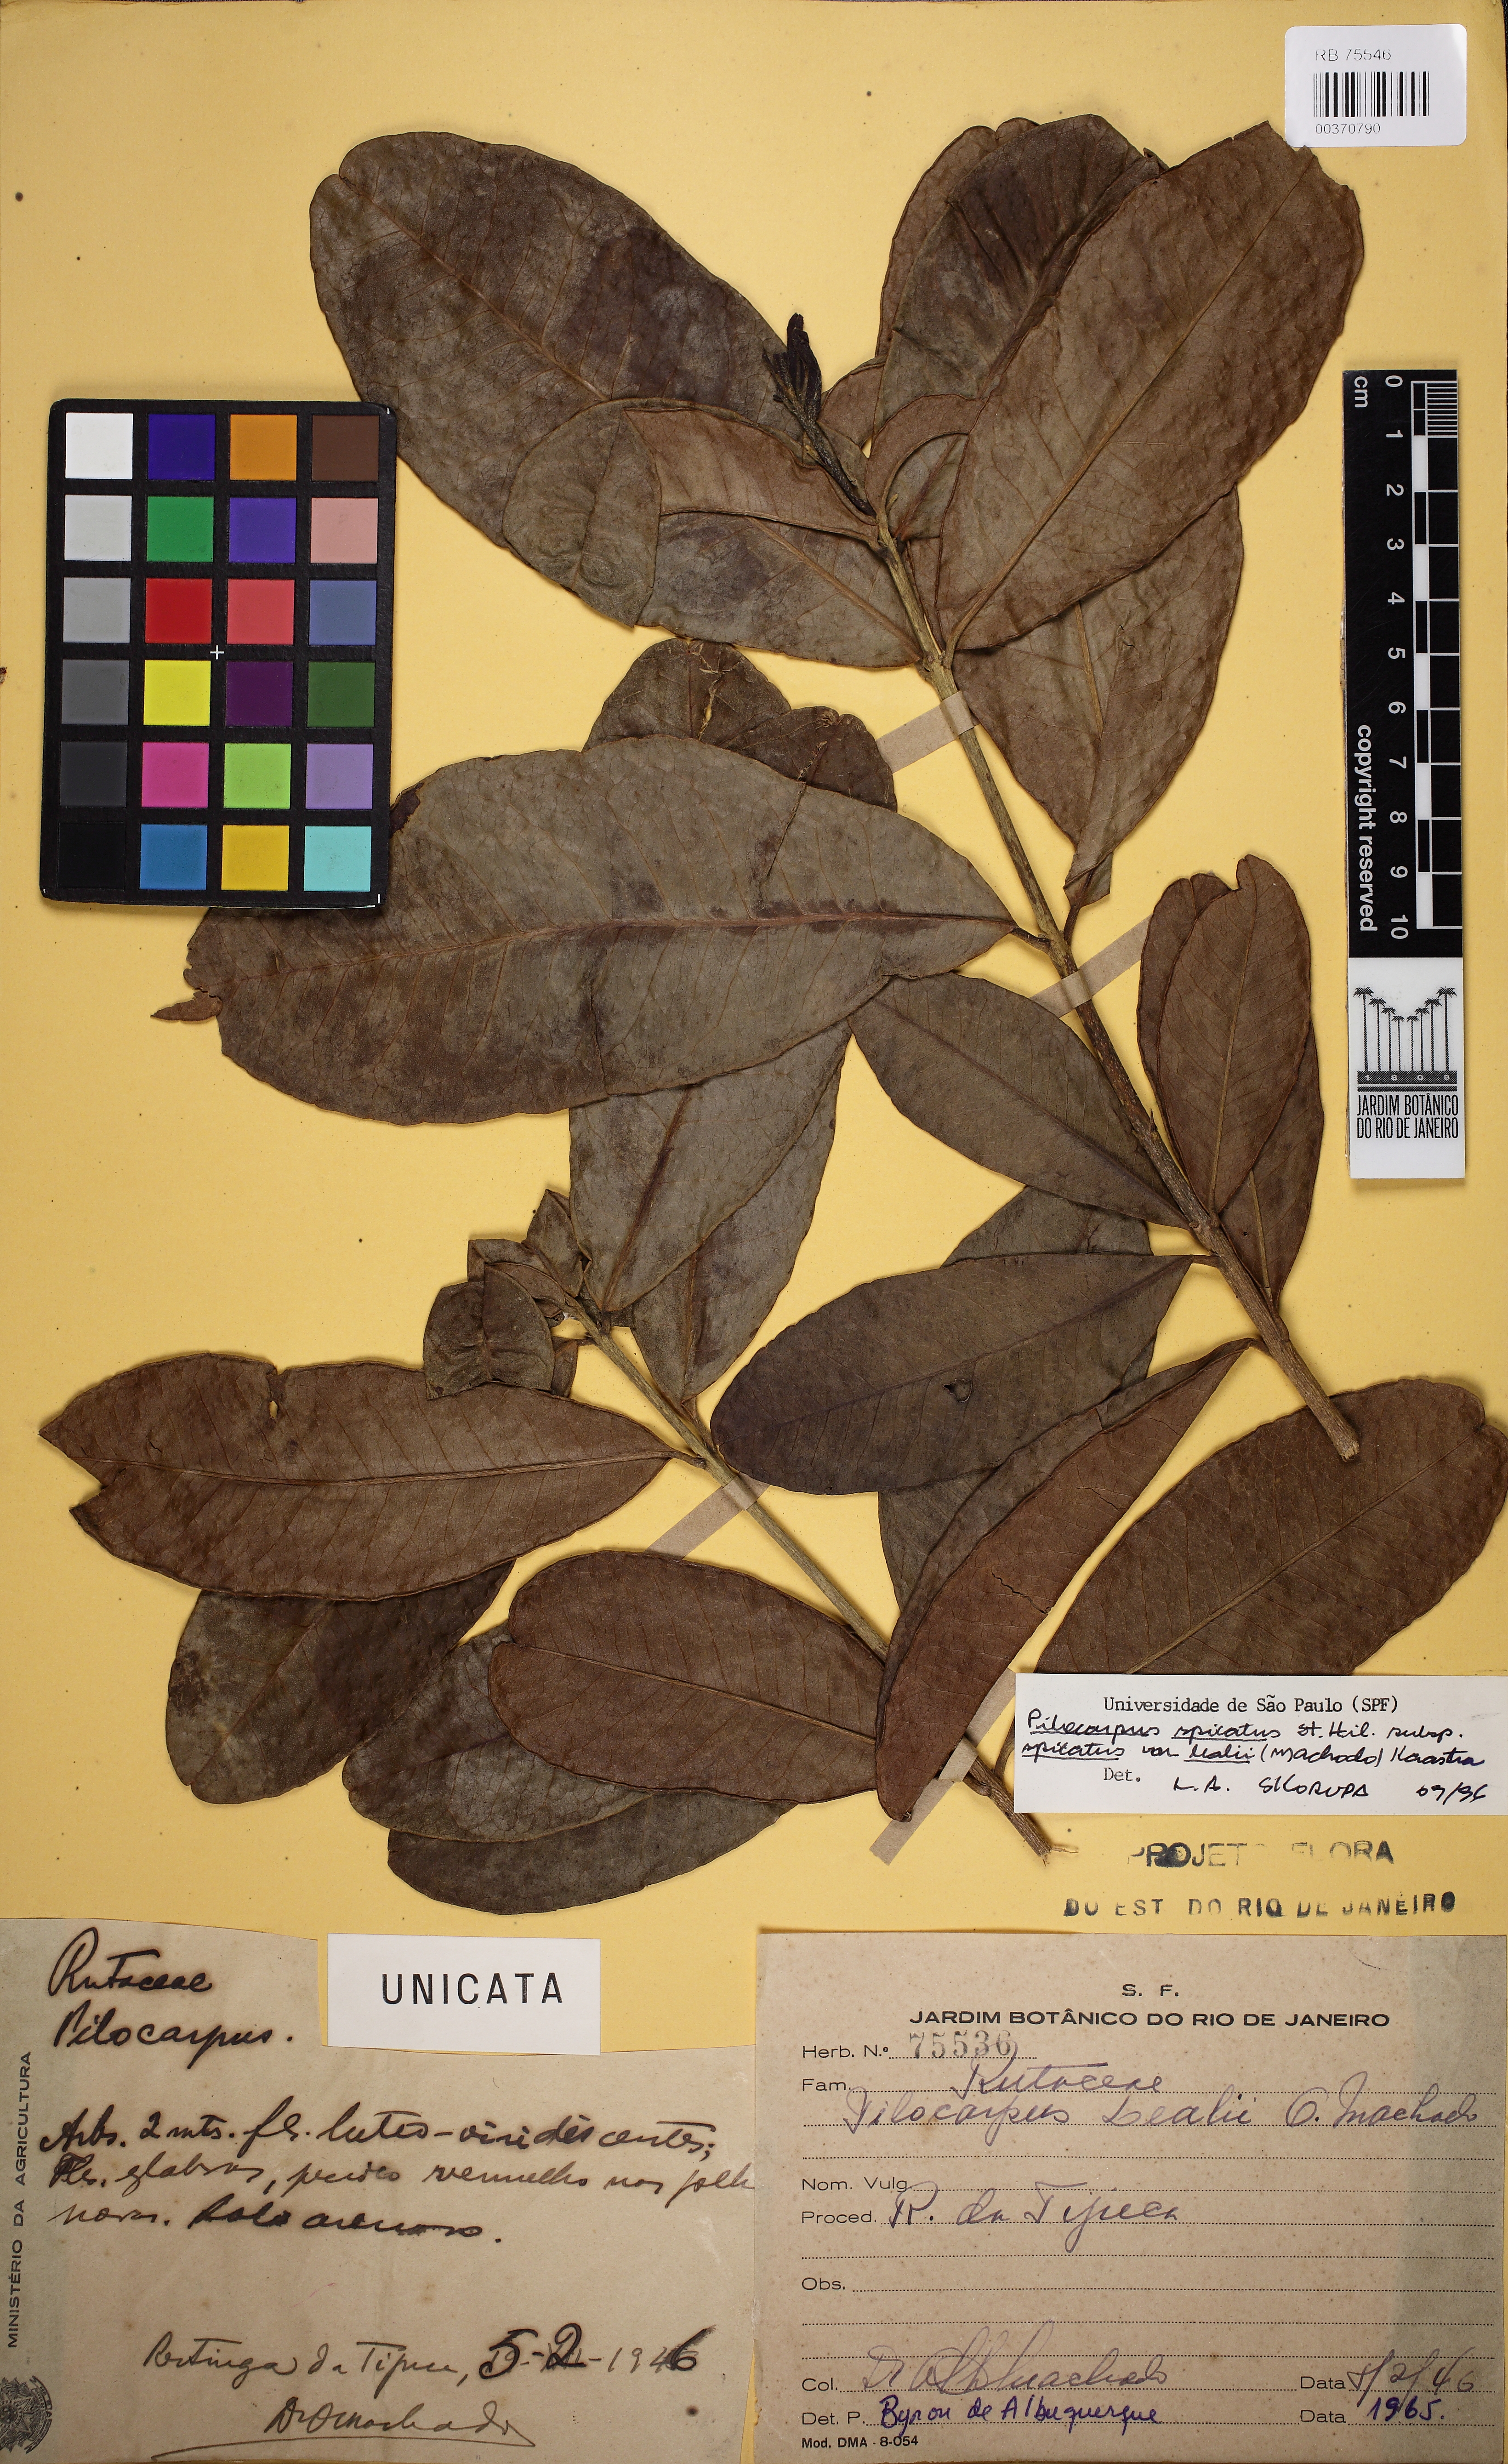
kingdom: Plantae
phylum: Tracheophyta
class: Magnoliopsida
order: Sapindales
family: Rutaceae
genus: Pilocarpus
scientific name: Pilocarpus spicatus
